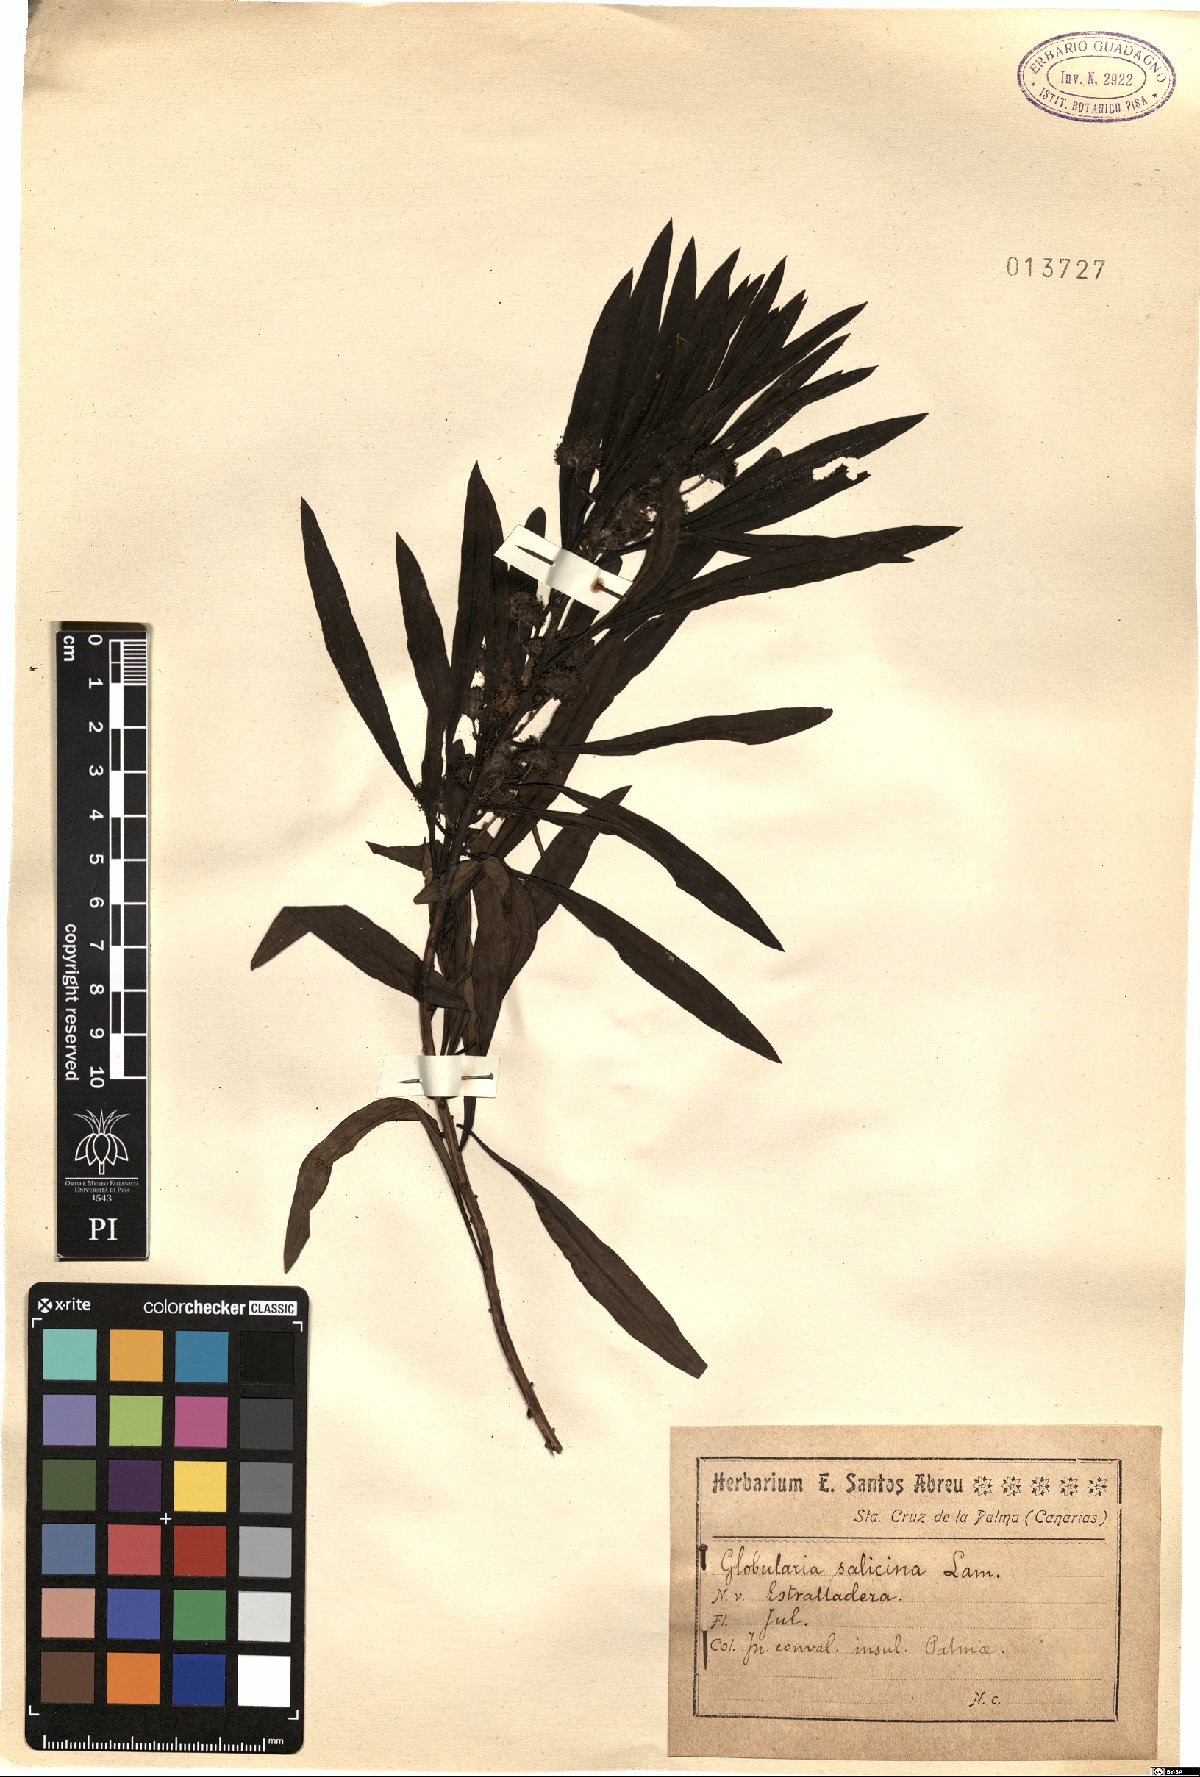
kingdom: Plantae
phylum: Tracheophyta
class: Magnoliopsida
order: Lamiales
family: Plantaginaceae
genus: Globularia
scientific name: Globularia salicina
